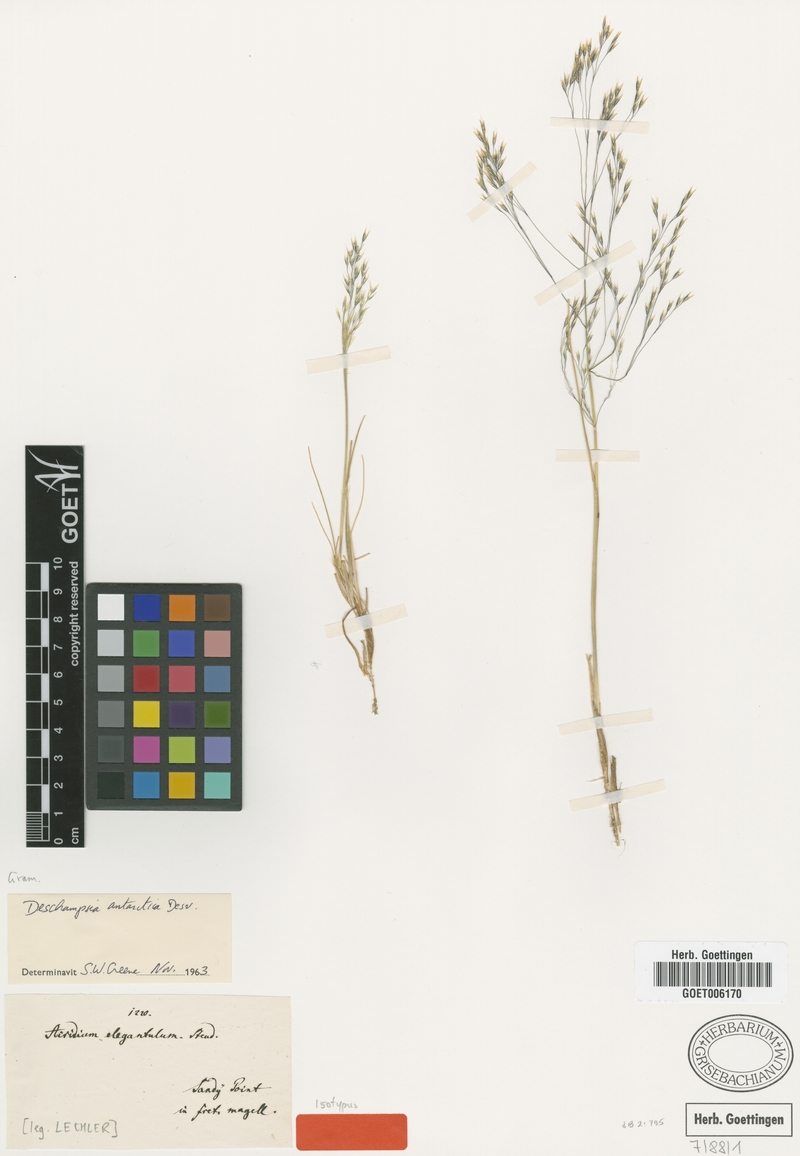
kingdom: Plantae
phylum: Tracheophyta
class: Liliopsida
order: Poales
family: Poaceae
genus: Deschampsia
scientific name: Deschampsia antarctica
